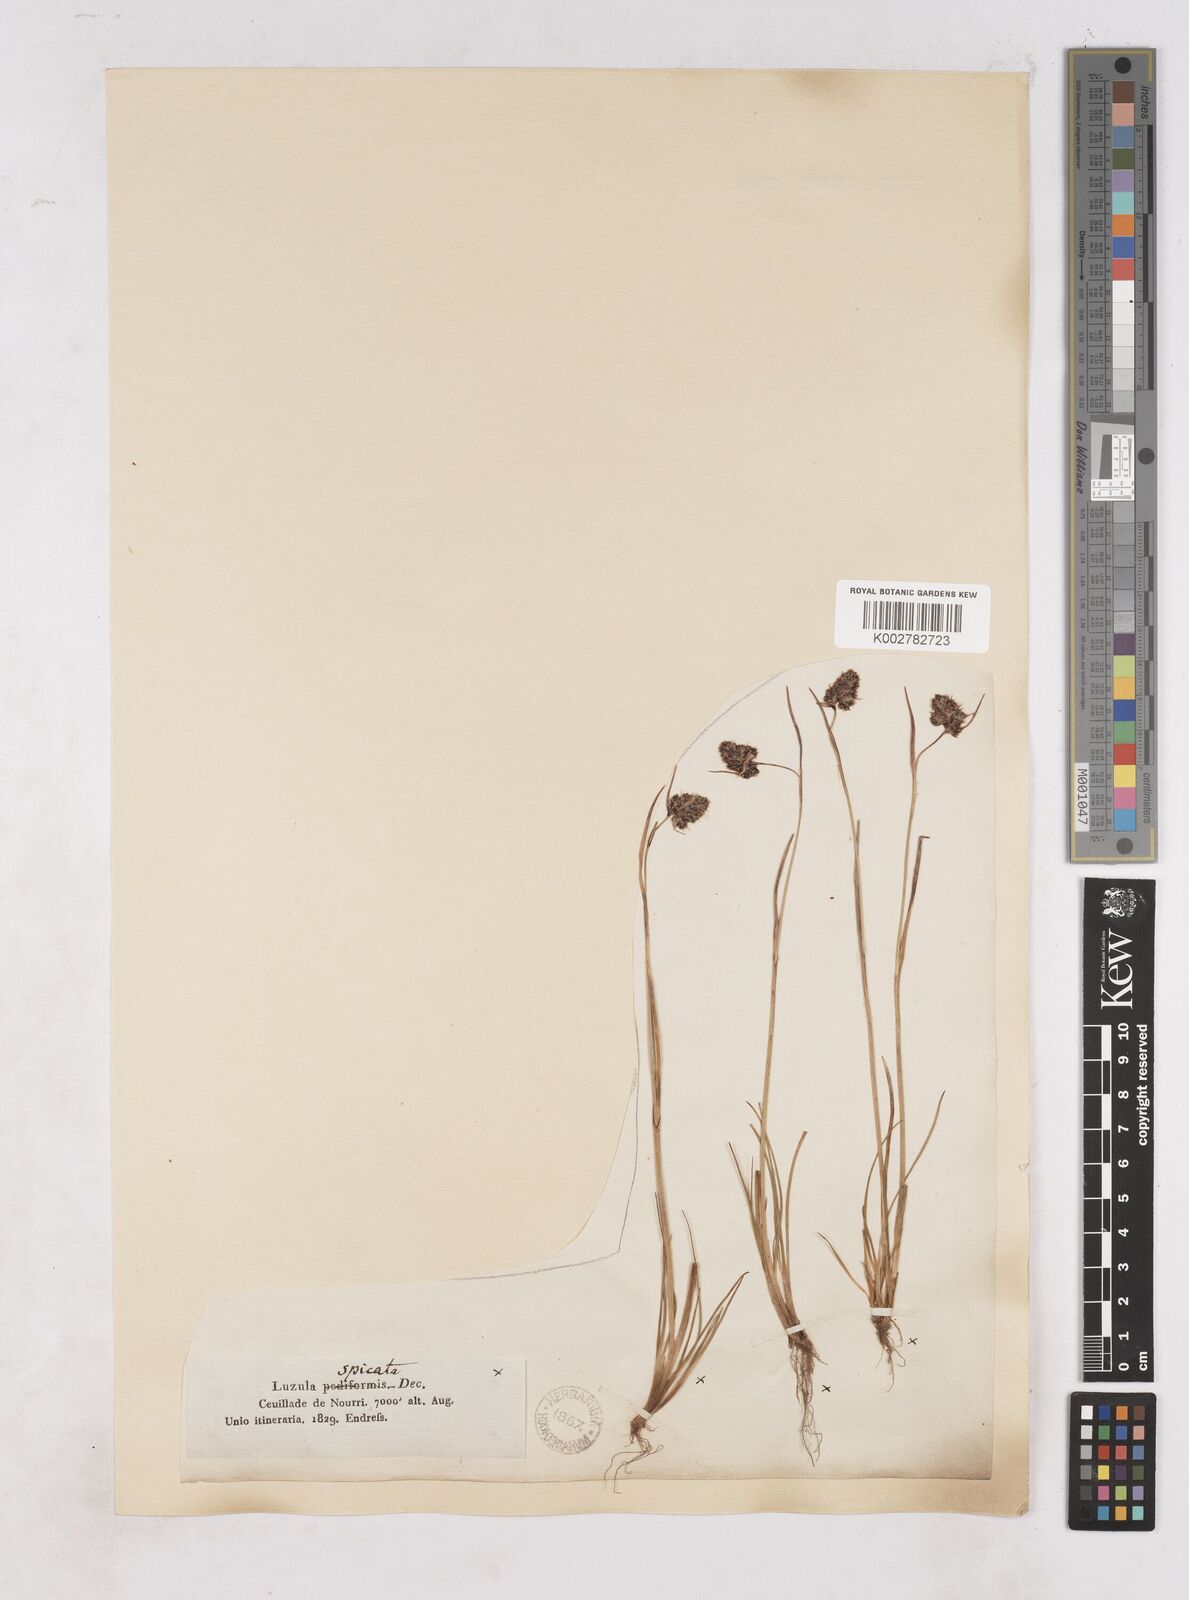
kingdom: Plantae
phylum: Tracheophyta
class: Liliopsida
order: Poales
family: Juncaceae
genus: Luzula
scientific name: Luzula spicata
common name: Spiked wood-rush
